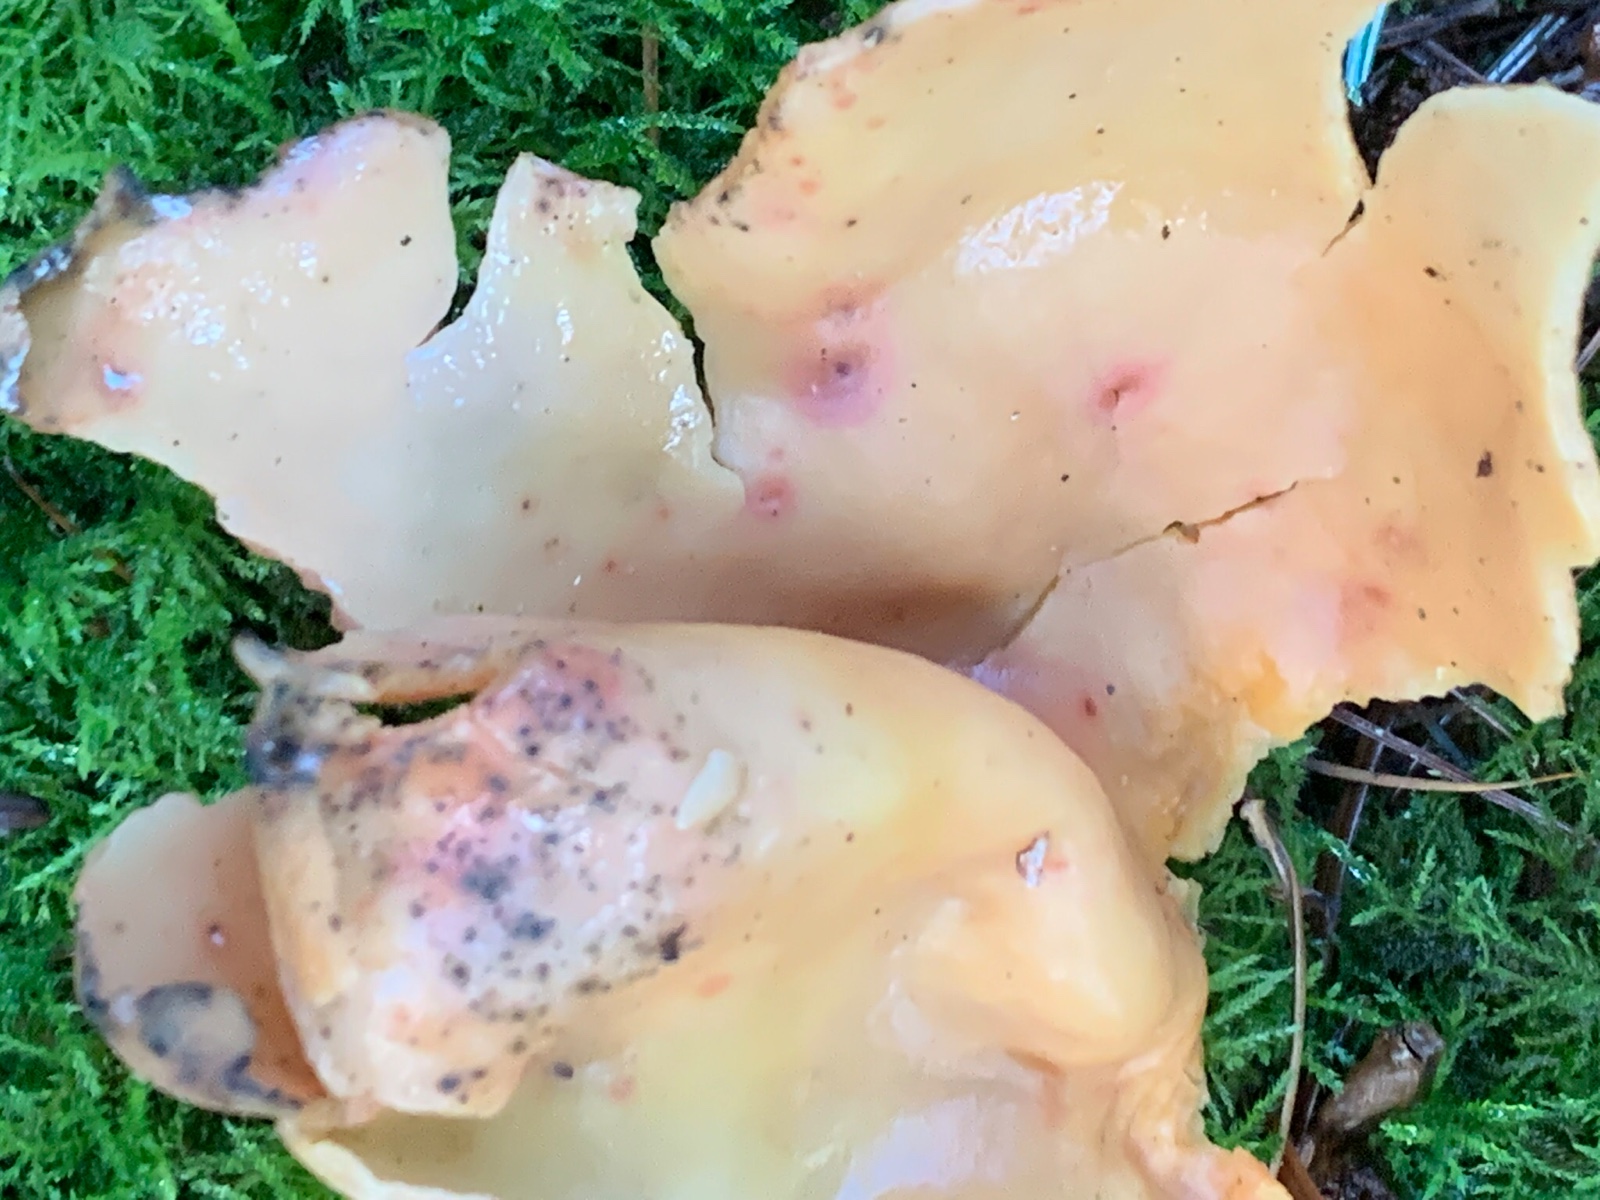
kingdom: Fungi
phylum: Ascomycota
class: Pezizomycetes
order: Pezizales
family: Otideaceae
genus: Otidea
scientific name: Otidea onotica
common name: æsel-ørebæger
